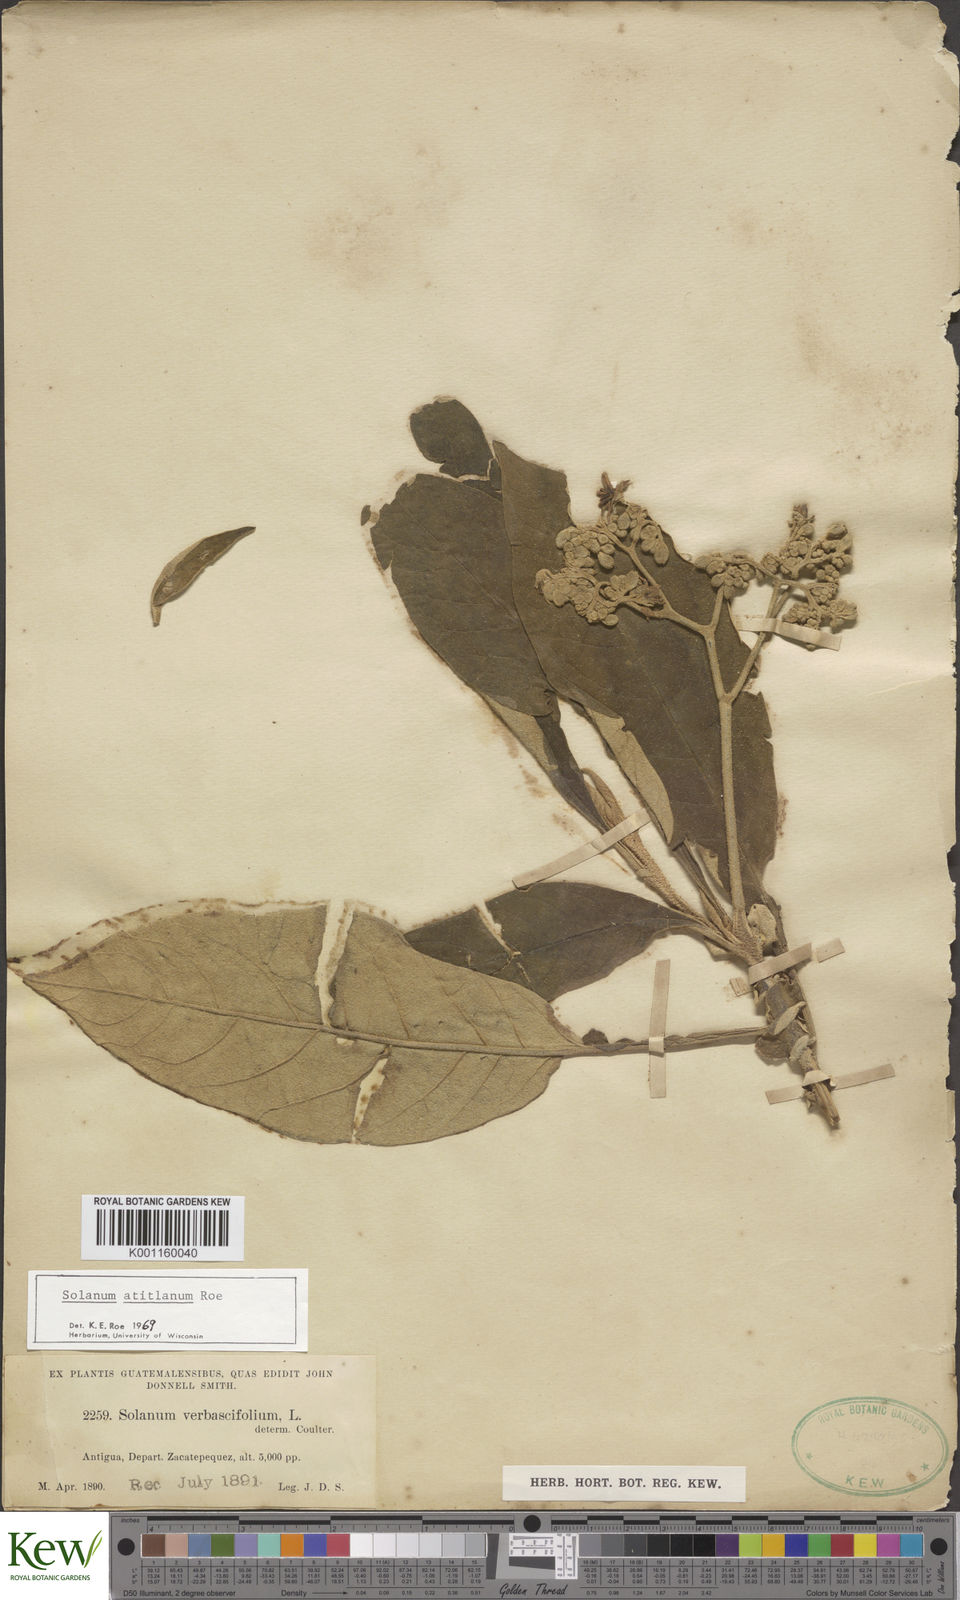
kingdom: Plantae
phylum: Tracheophyta
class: Magnoliopsida
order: Solanales
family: Solanaceae
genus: Solanum
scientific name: Solanum atitlanum
